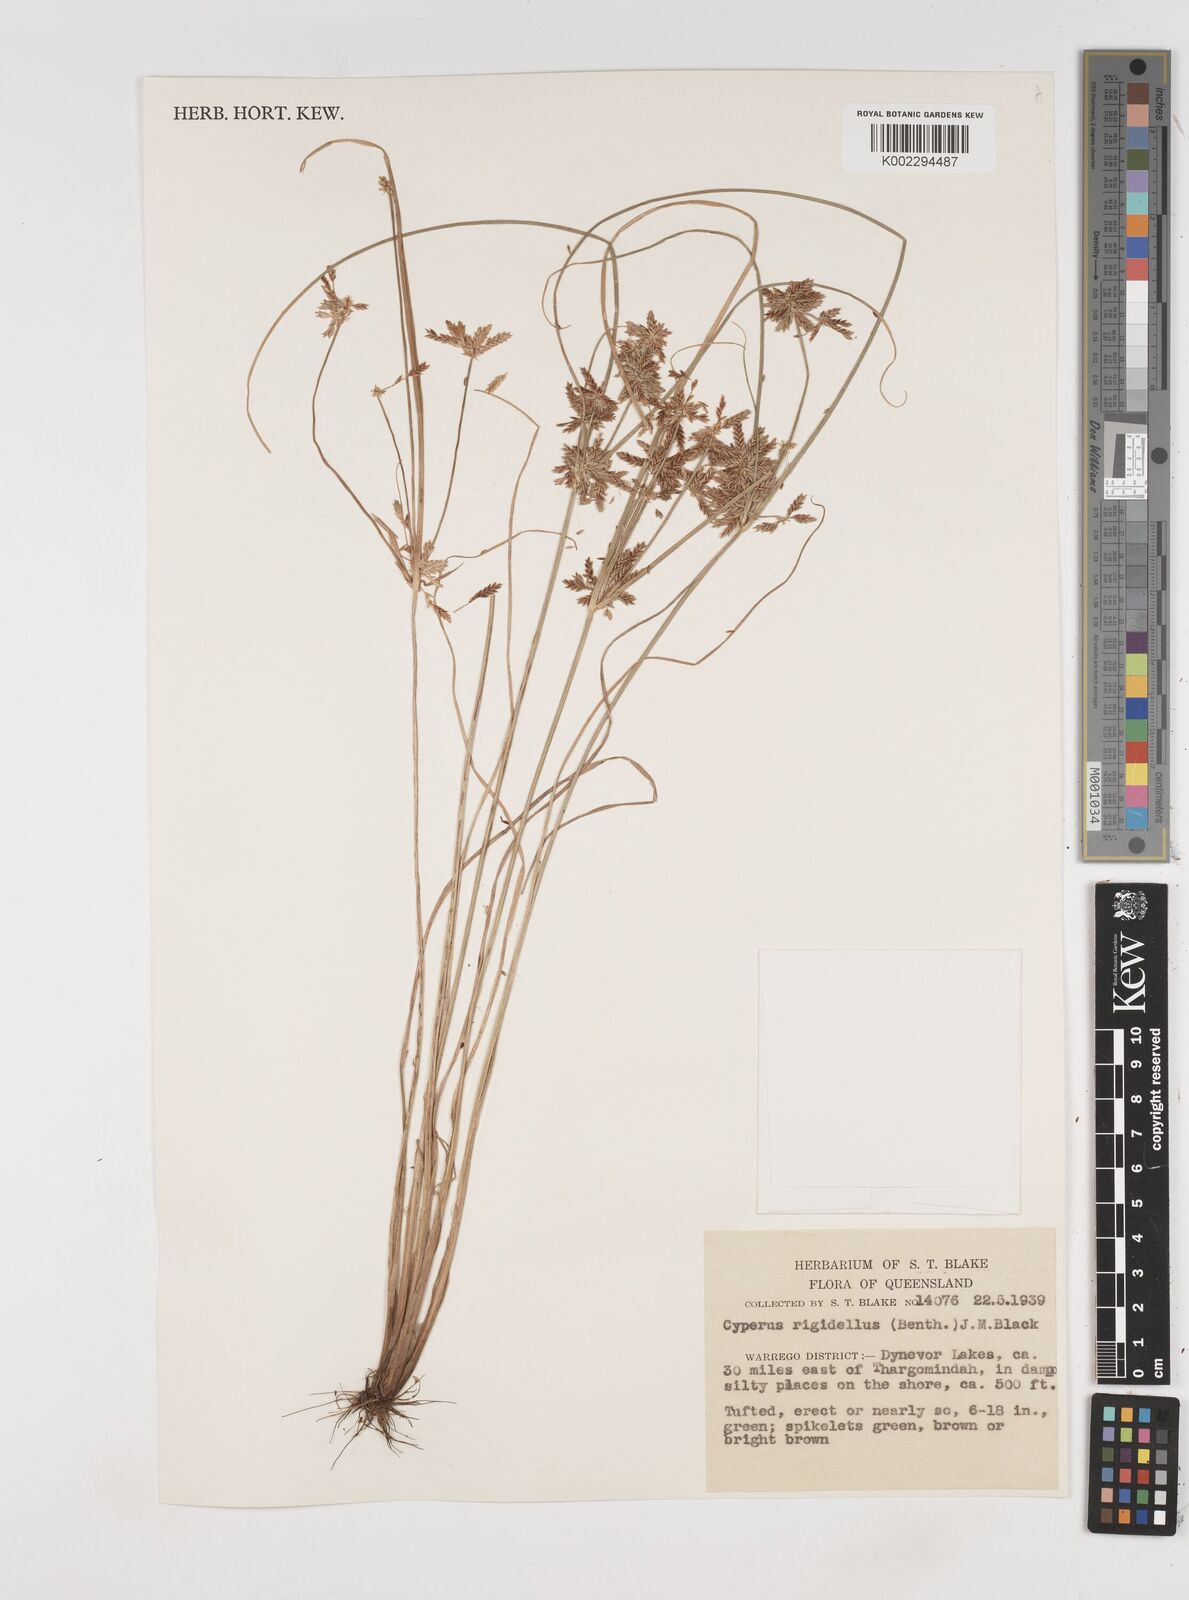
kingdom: Plantae
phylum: Tracheophyta
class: Liliopsida
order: Poales
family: Cyperaceae
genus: Cyperus
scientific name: Cyperus rigidellus
